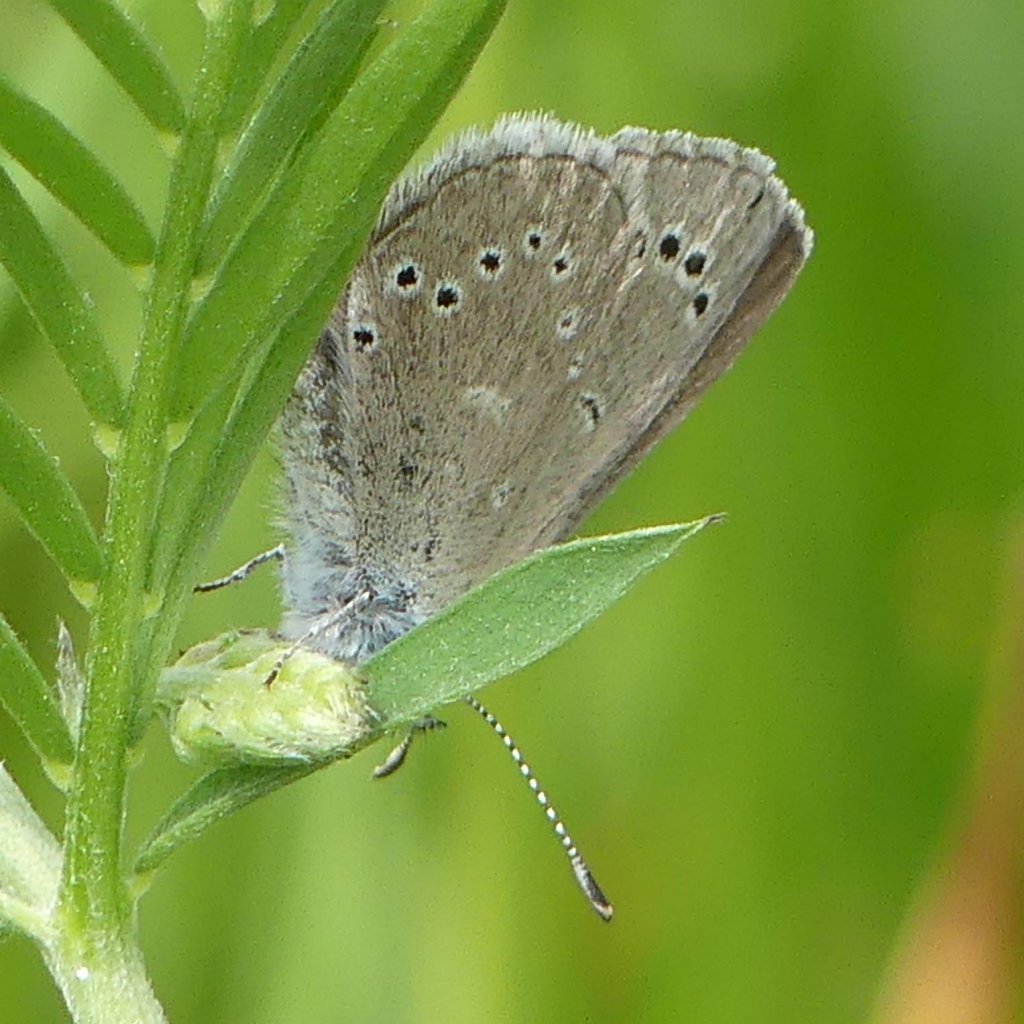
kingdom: Animalia
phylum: Arthropoda
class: Insecta
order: Lepidoptera
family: Lycaenidae
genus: Glaucopsyche
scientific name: Glaucopsyche lygdamus
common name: Silvery Blue
